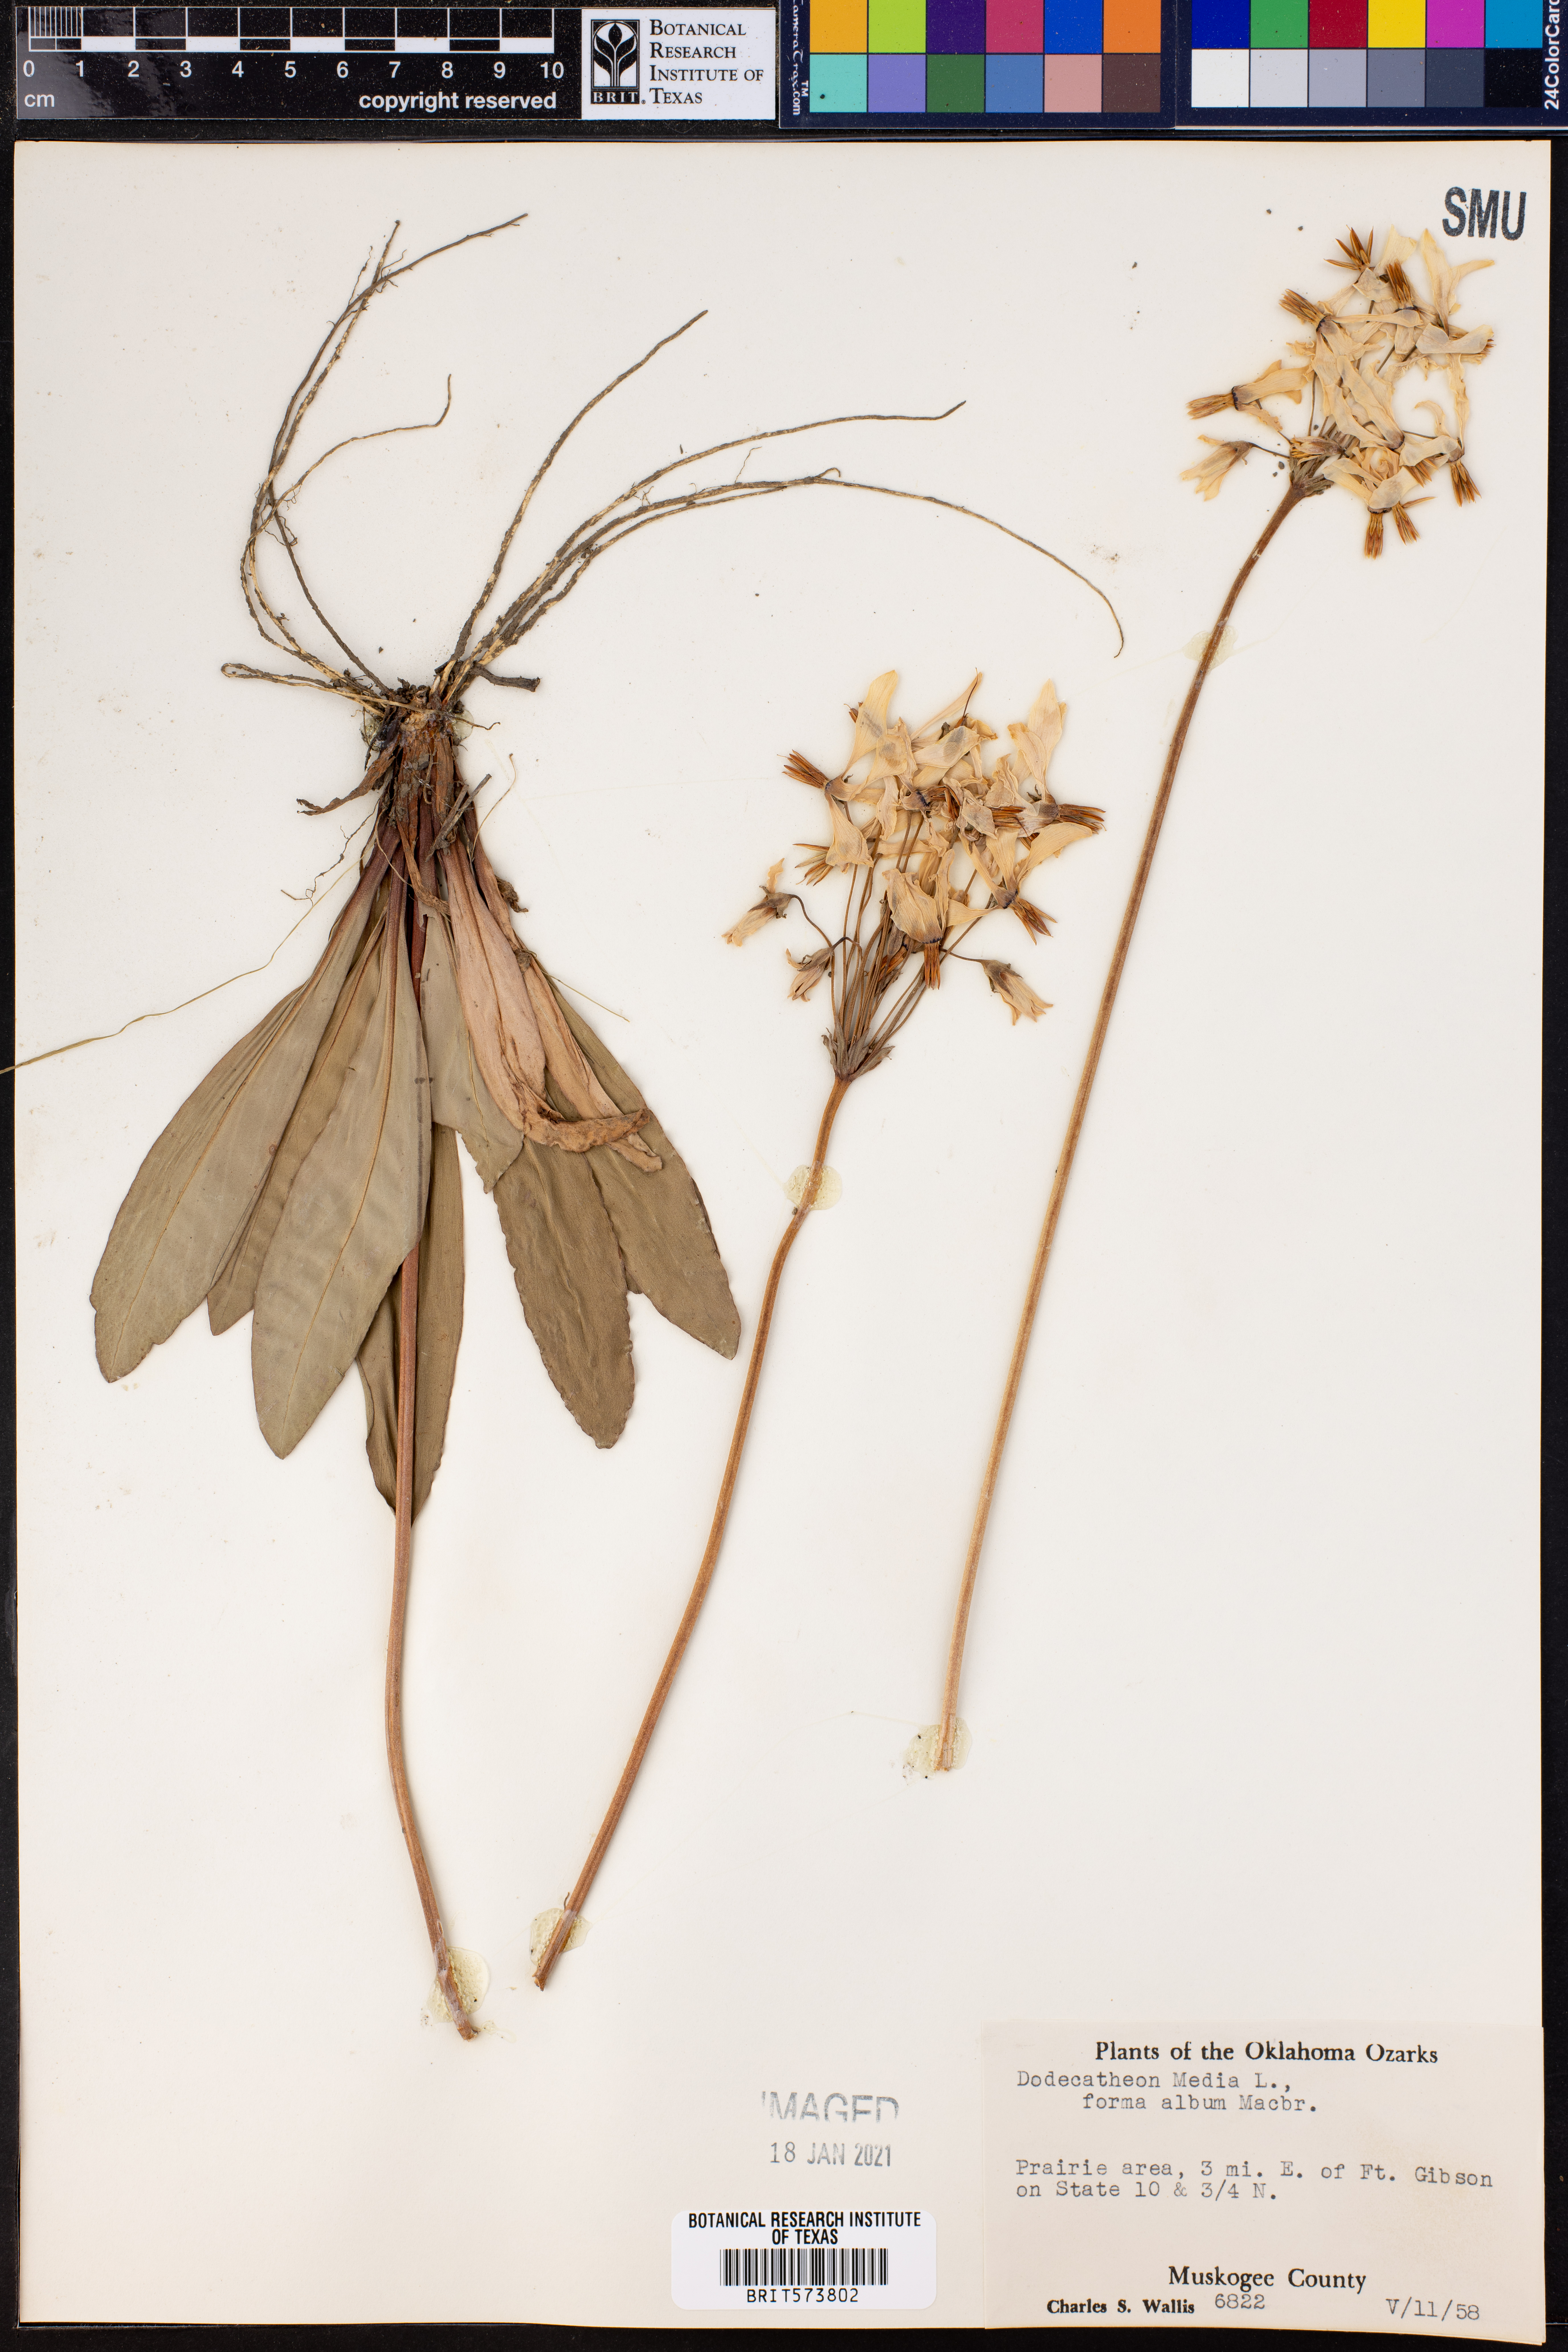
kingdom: Plantae
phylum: Tracheophyta
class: Magnoliopsida
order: Ericales
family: Primulaceae
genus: Dodecatheon
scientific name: Dodecatheon meadia
